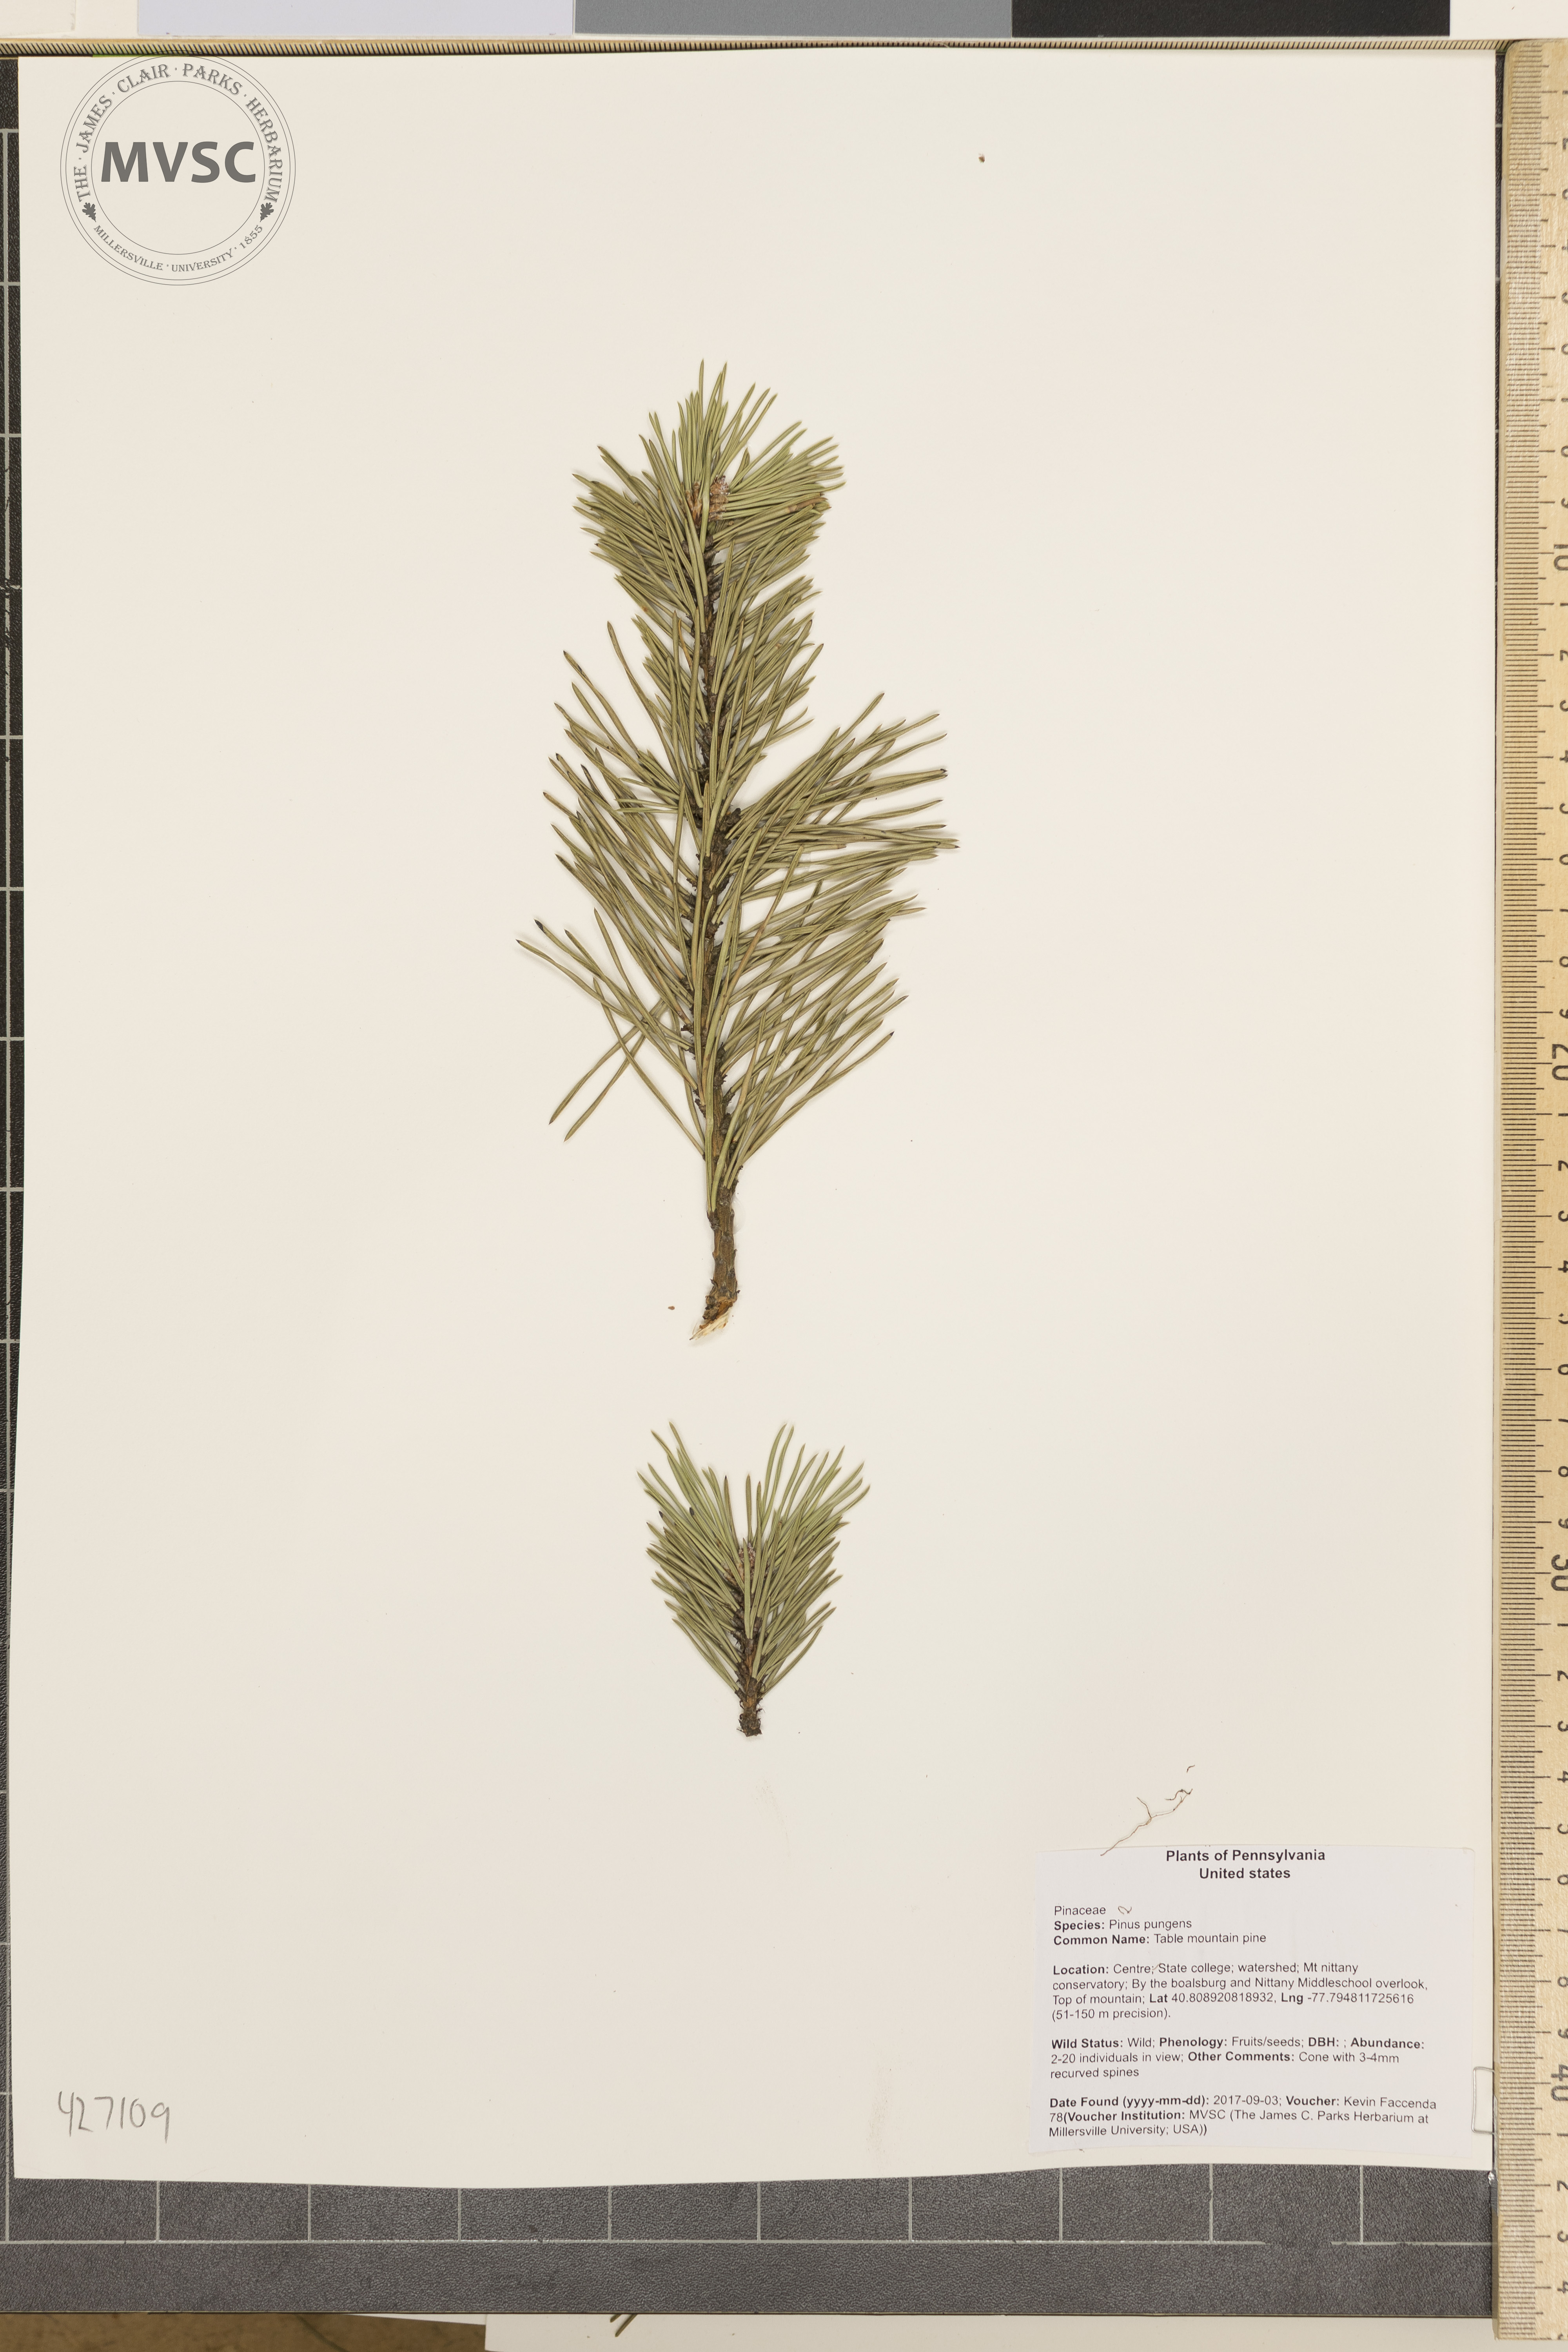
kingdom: Plantae
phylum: Tracheophyta
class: Pinopsida
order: Pinales
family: Pinaceae
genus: Pinus
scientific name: Pinus pungens
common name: Table mountain pine
